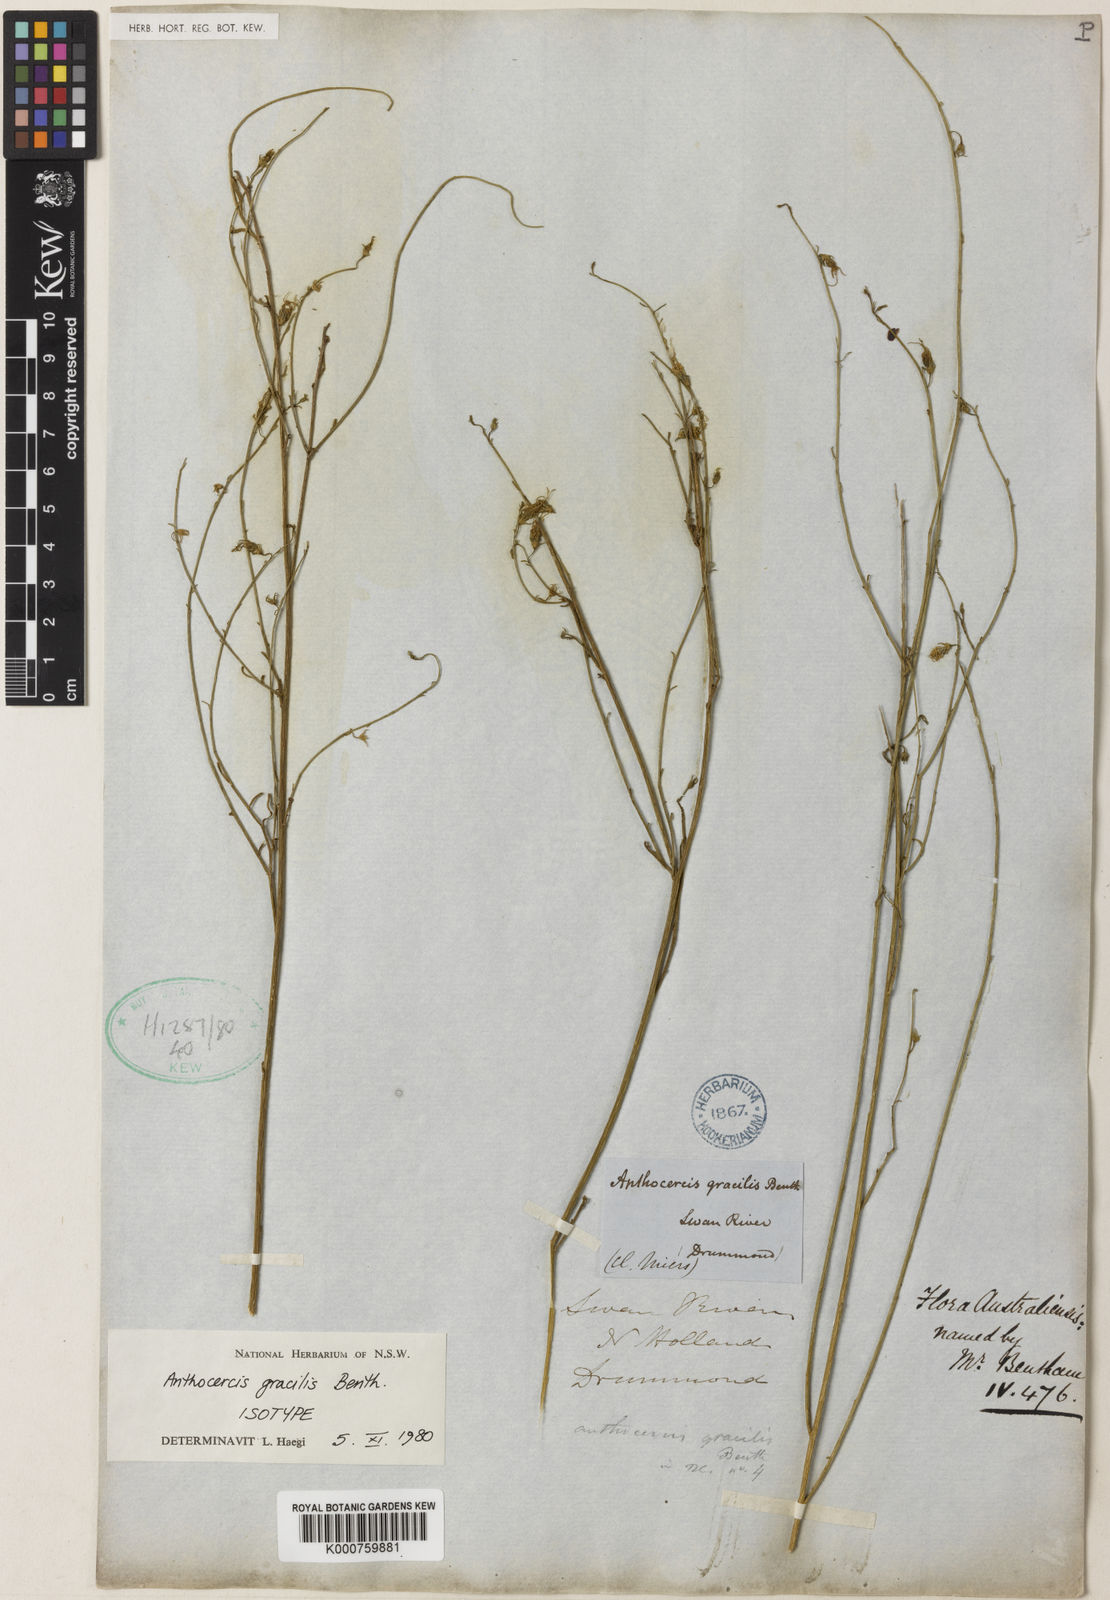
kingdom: Plantae
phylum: Tracheophyta
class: Magnoliopsida
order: Solanales
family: Solanaceae
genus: Anthocercis
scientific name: Anthocercis gracilis
